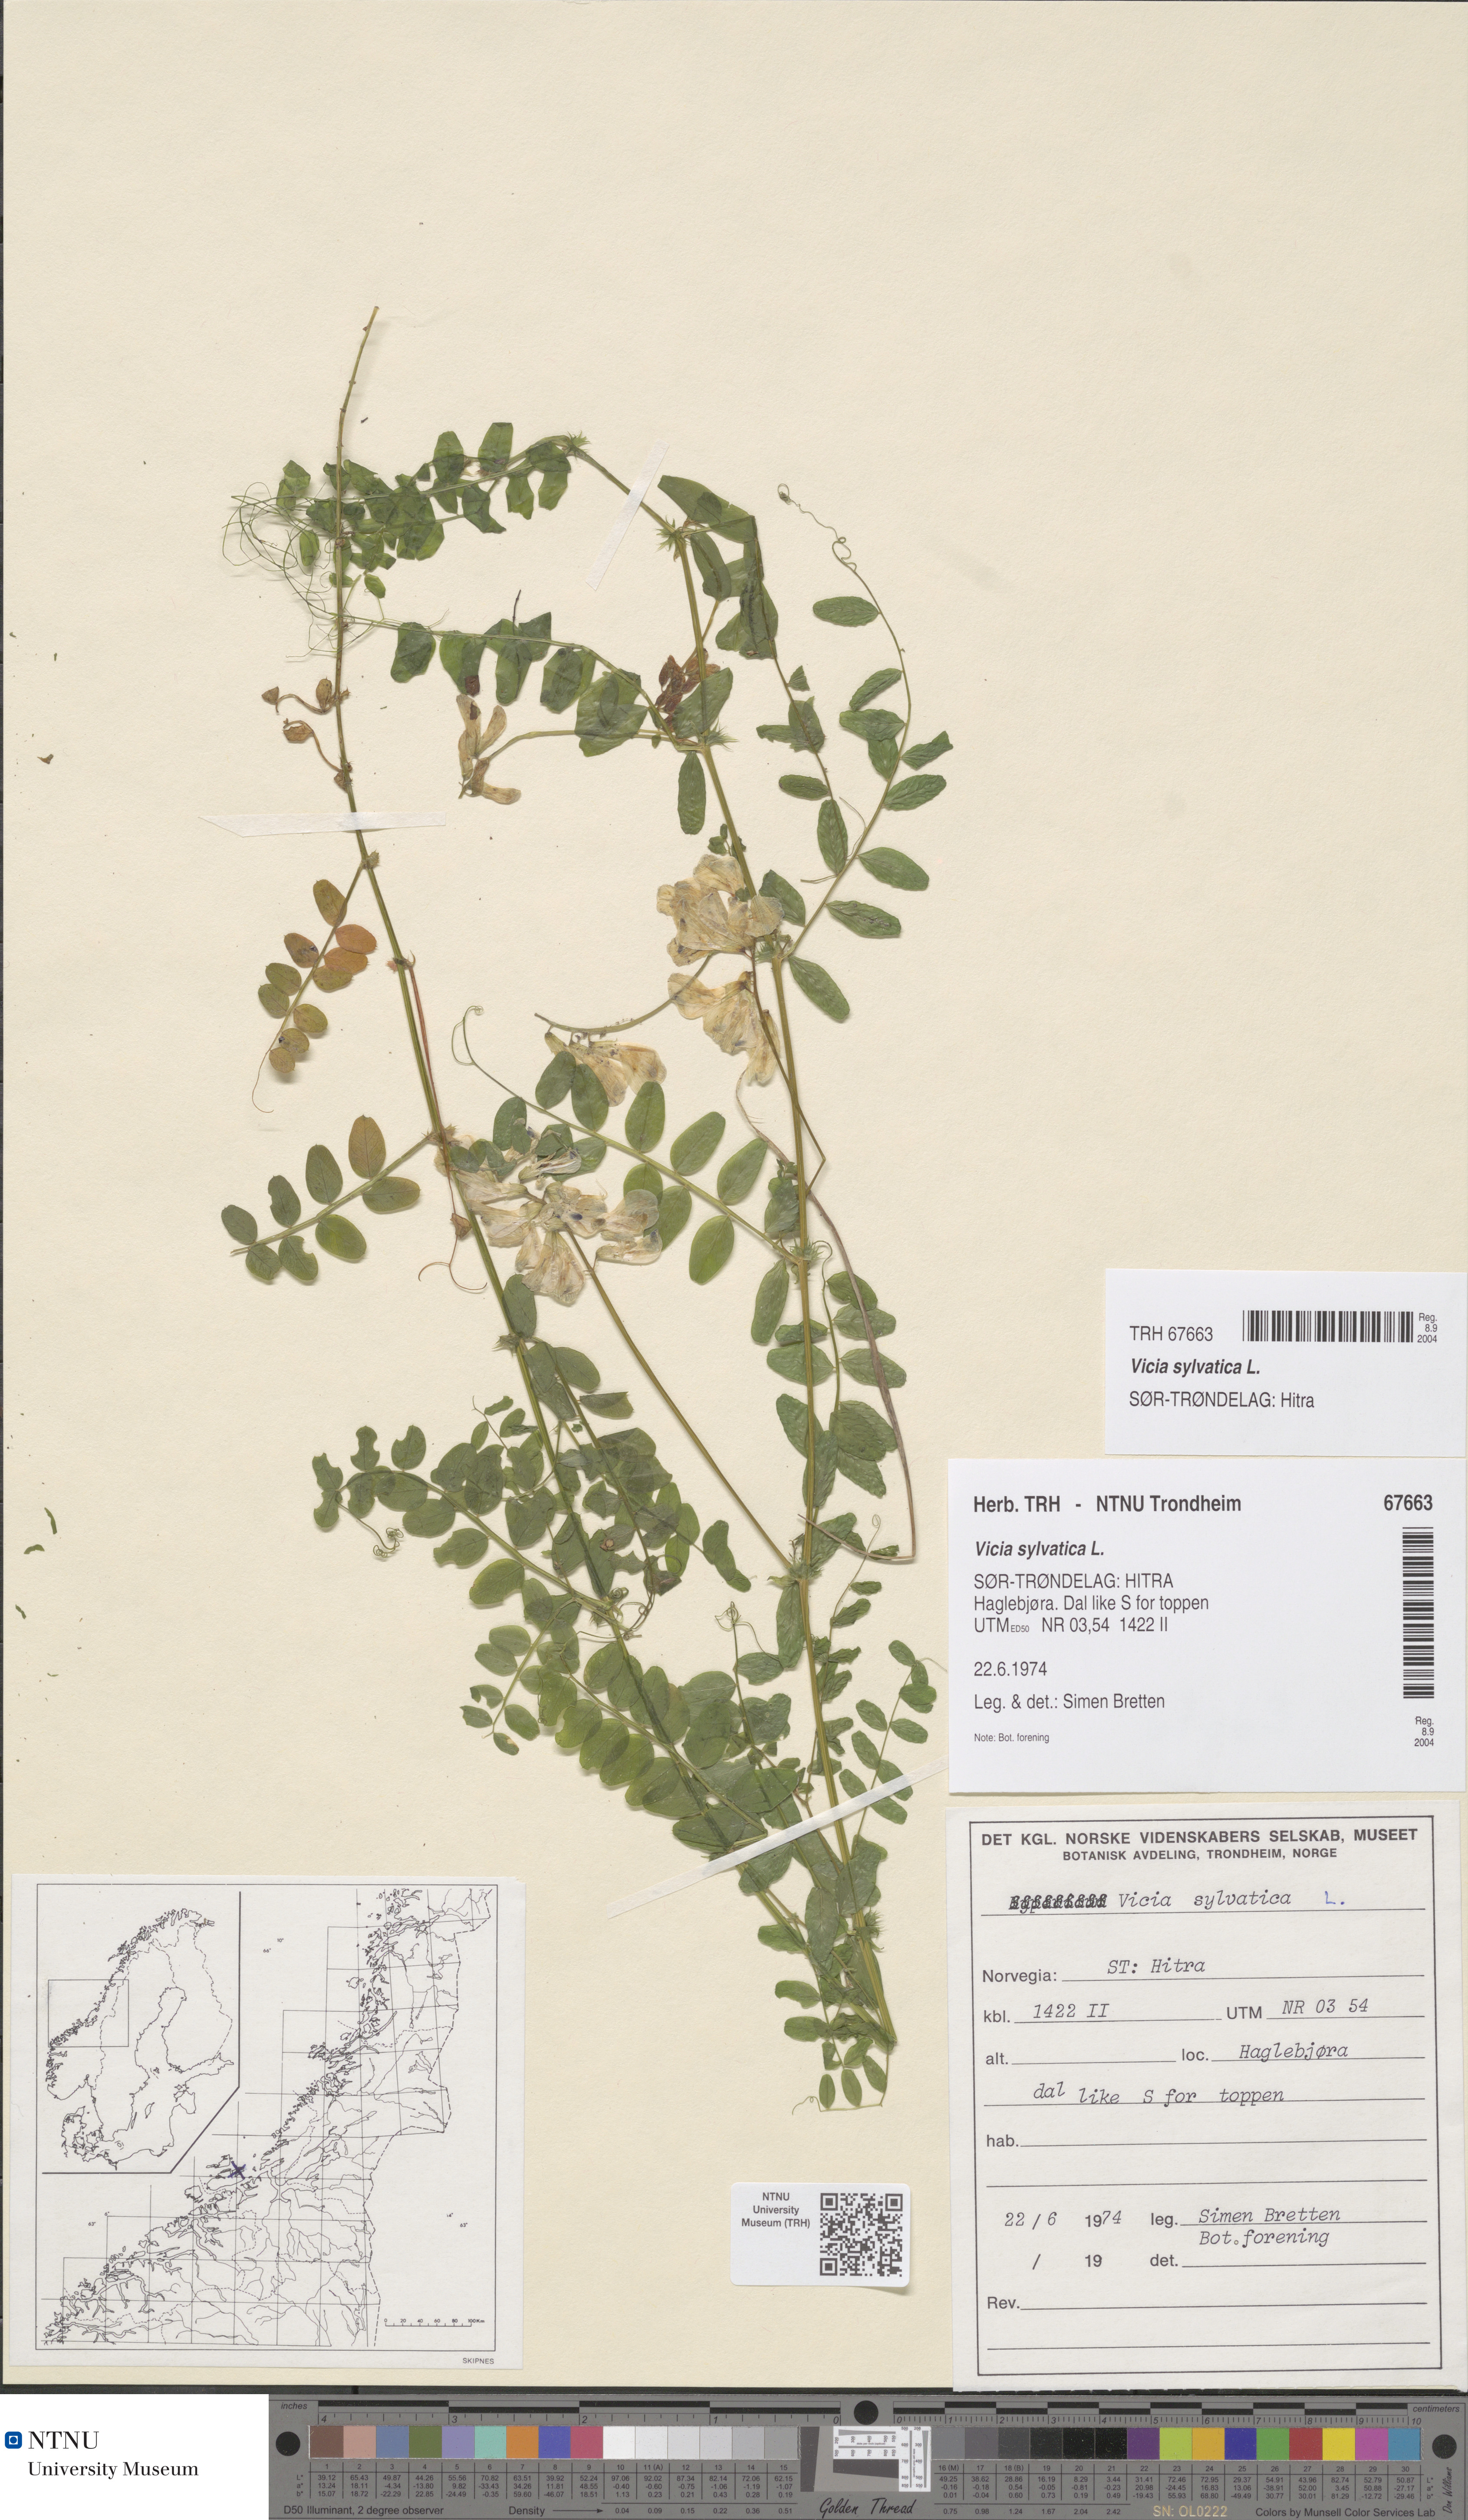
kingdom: Plantae
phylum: Tracheophyta
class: Magnoliopsida
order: Fabales
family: Fabaceae
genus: Vicia
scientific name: Vicia sylvatica
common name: Wood vetch
